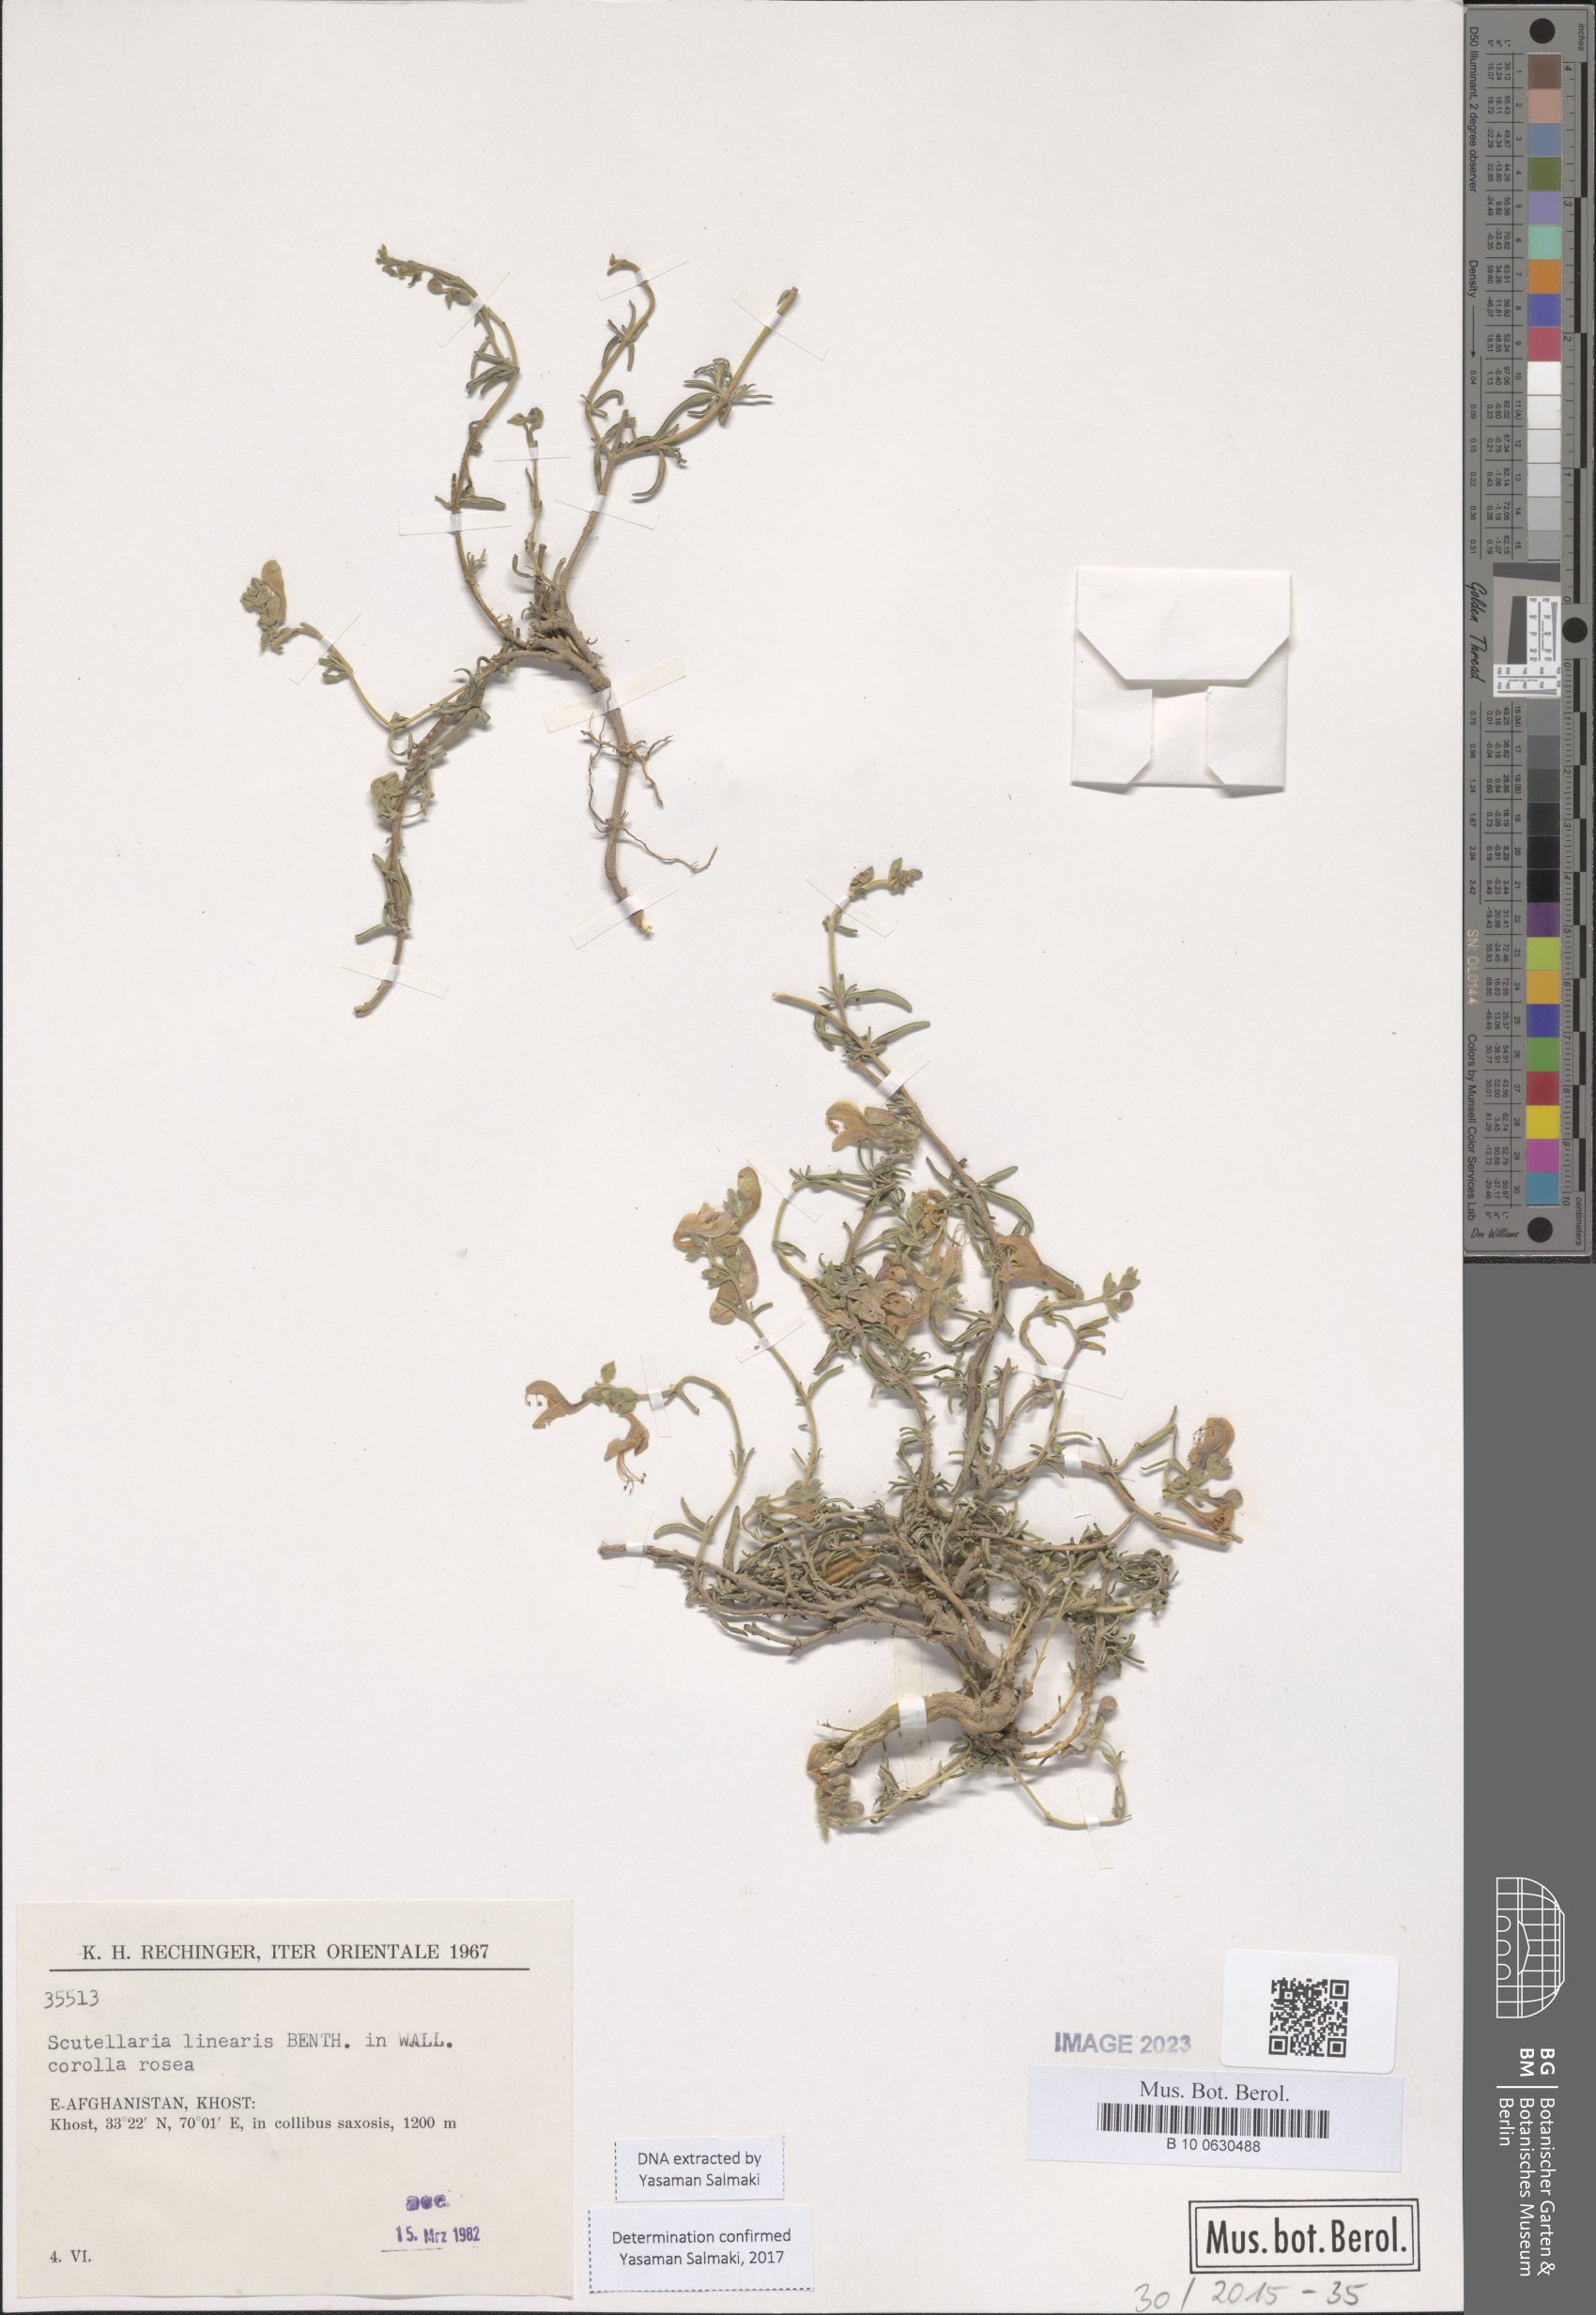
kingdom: Plantae
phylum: Tracheophyta
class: Magnoliopsida
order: Lamiales
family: Lamiaceae
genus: Scutellaria
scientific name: Scutellaria linearis
